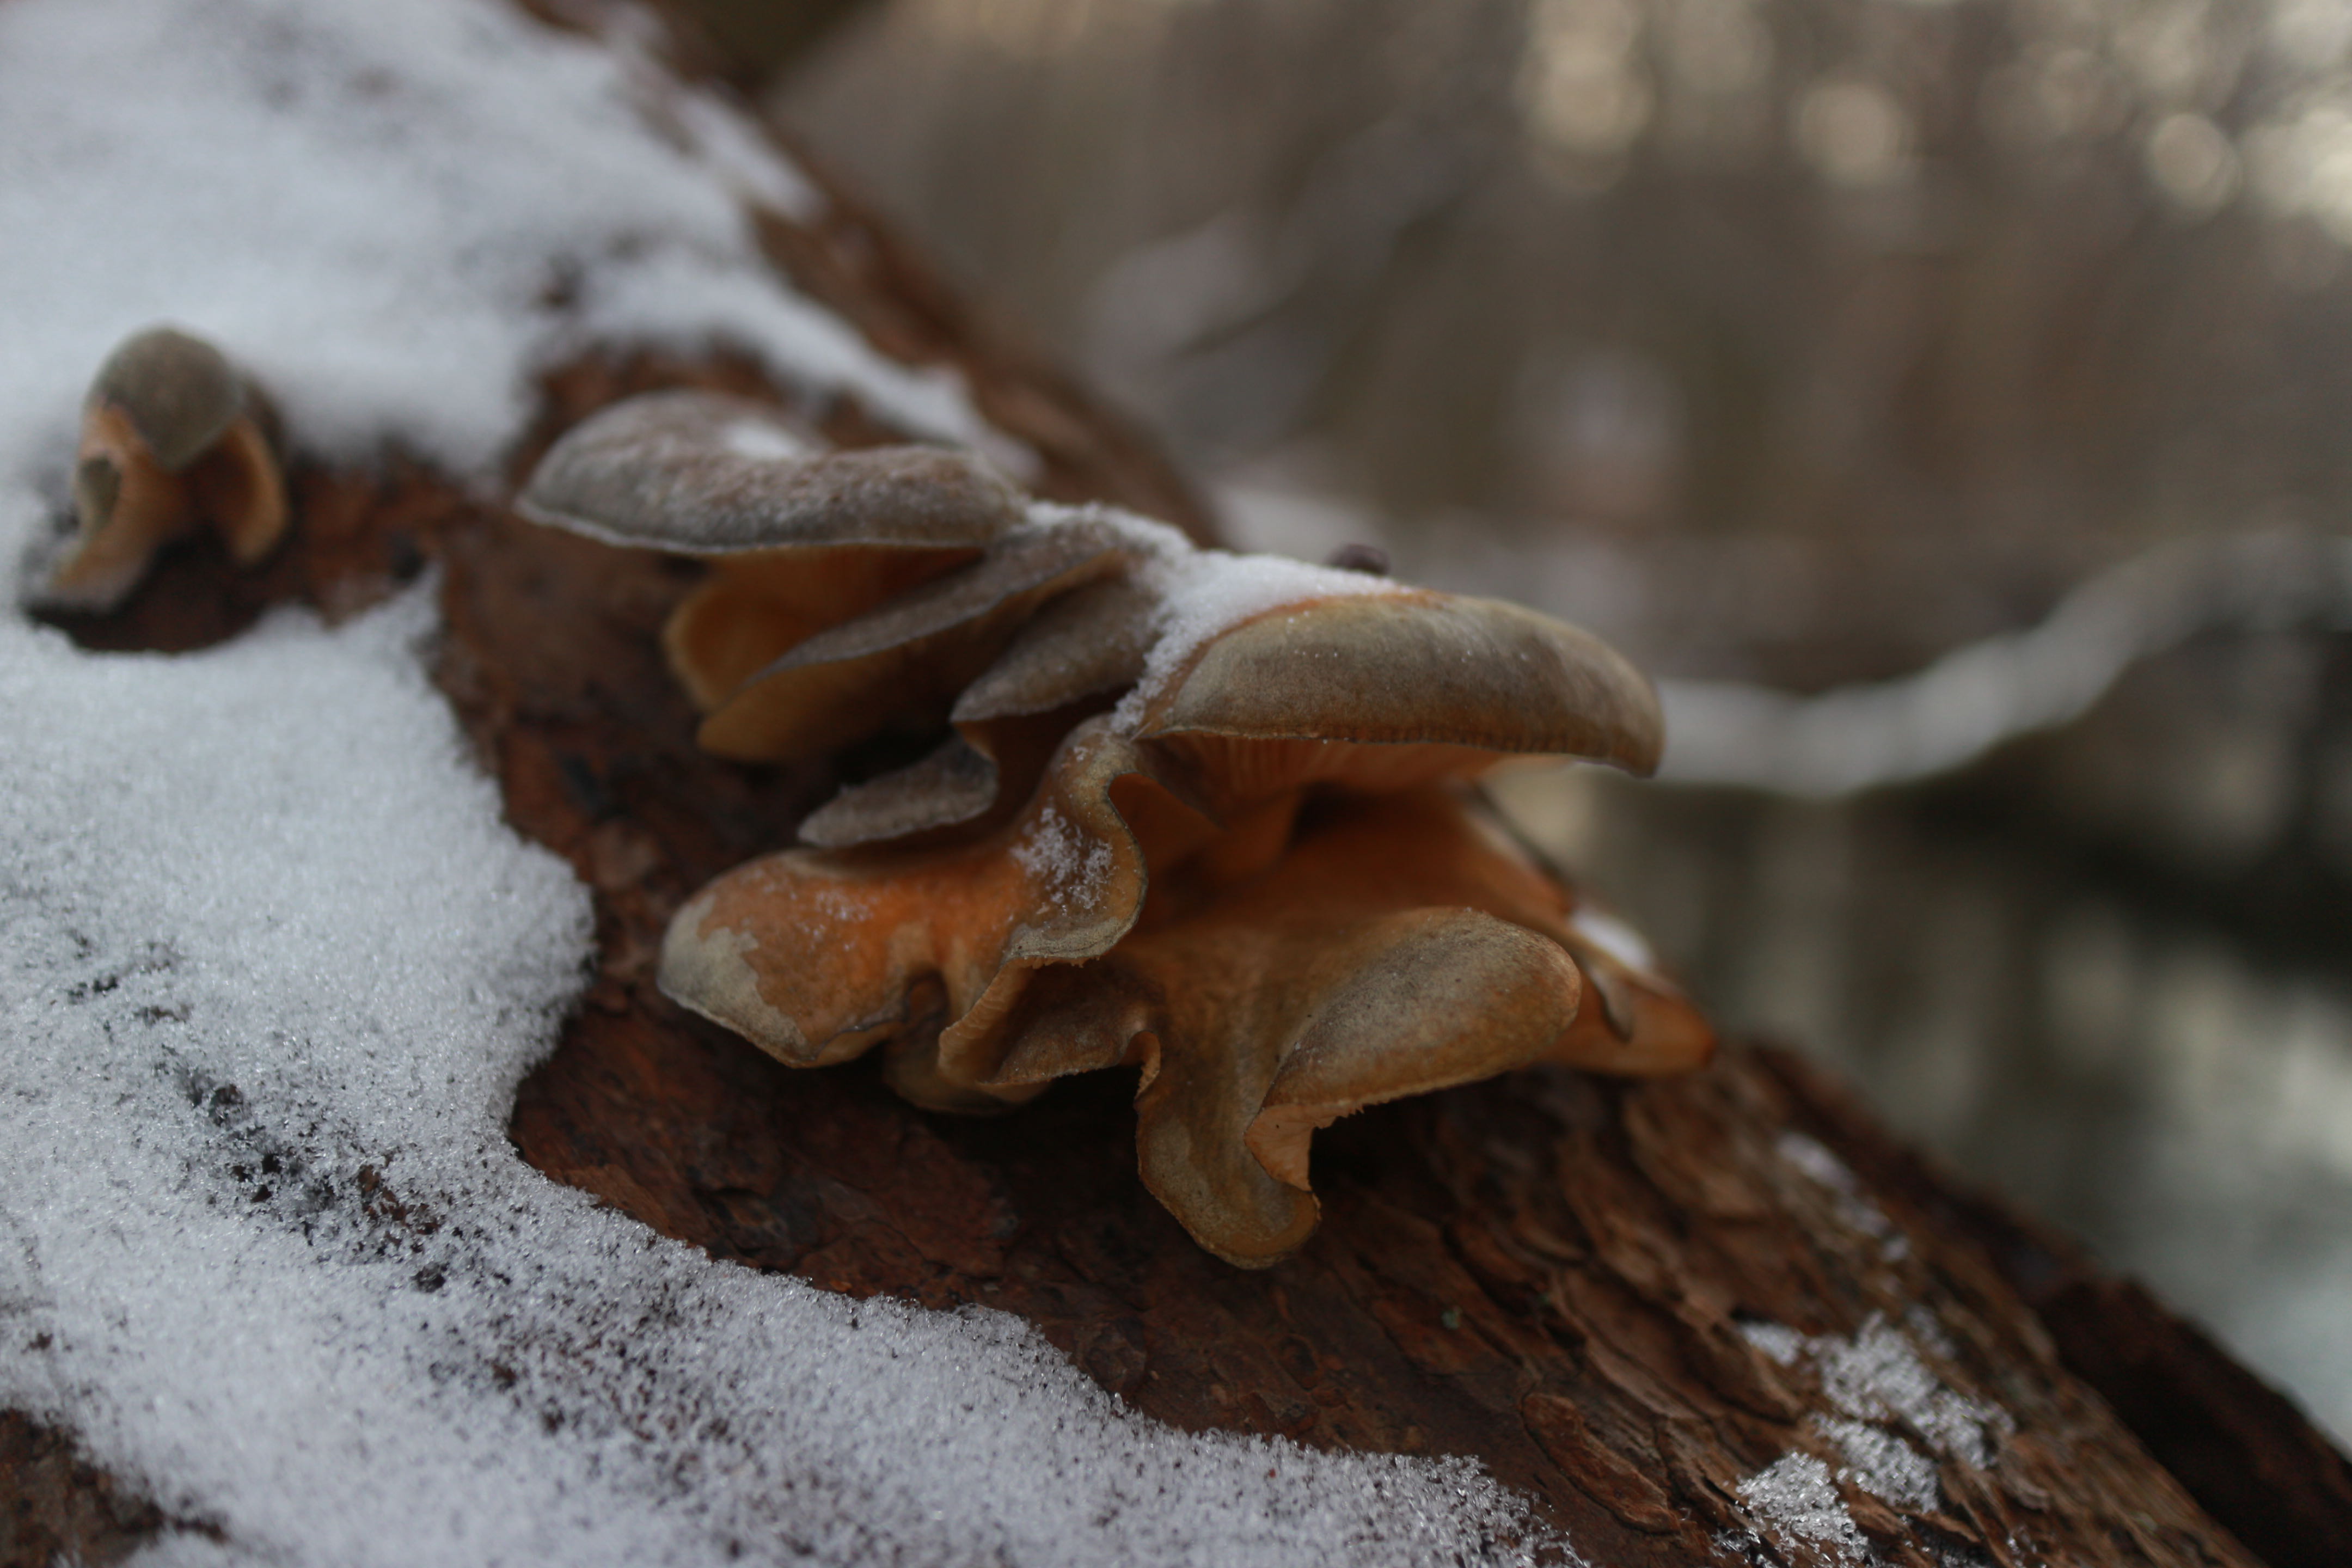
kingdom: Fungi
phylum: Basidiomycota
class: Agaricomycetes
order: Agaricales
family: Sarcomyxaceae
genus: Sarcomyxa
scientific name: Sarcomyxa serotina
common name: gummihat
